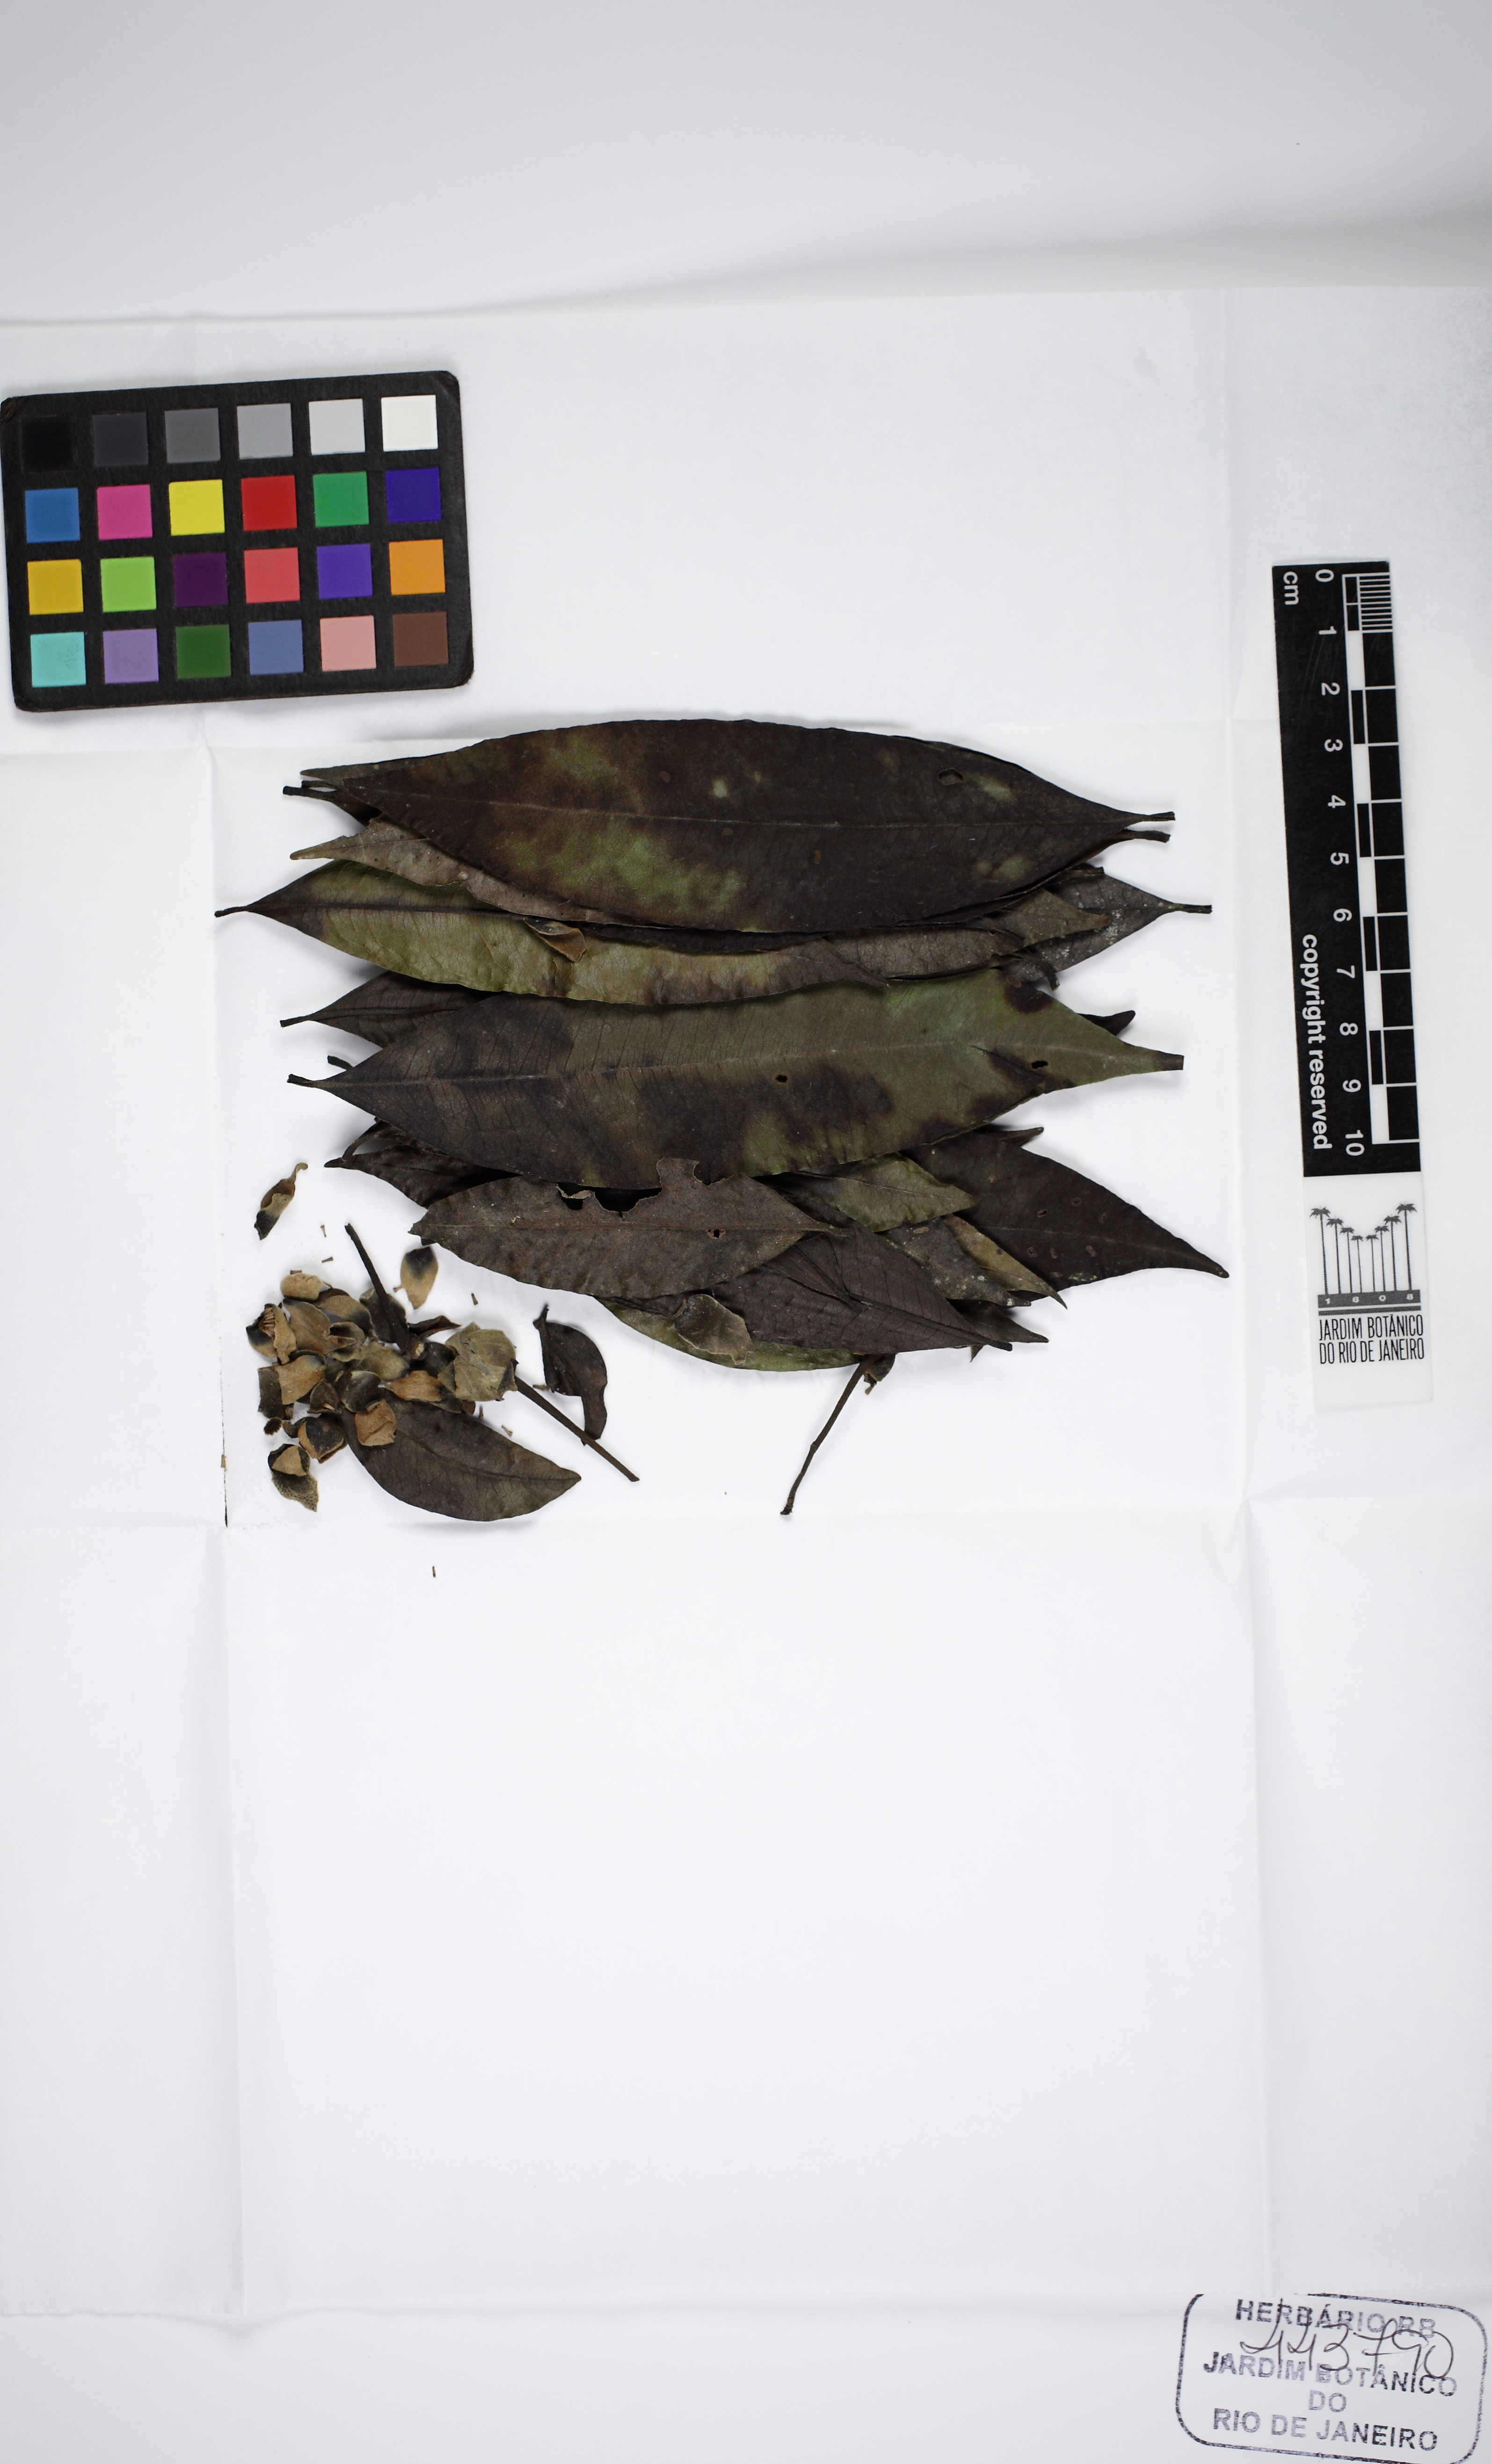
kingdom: Plantae
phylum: Tracheophyta
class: Magnoliopsida
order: Magnoliales
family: Annonaceae
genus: Guatteria
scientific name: Guatteria australis
